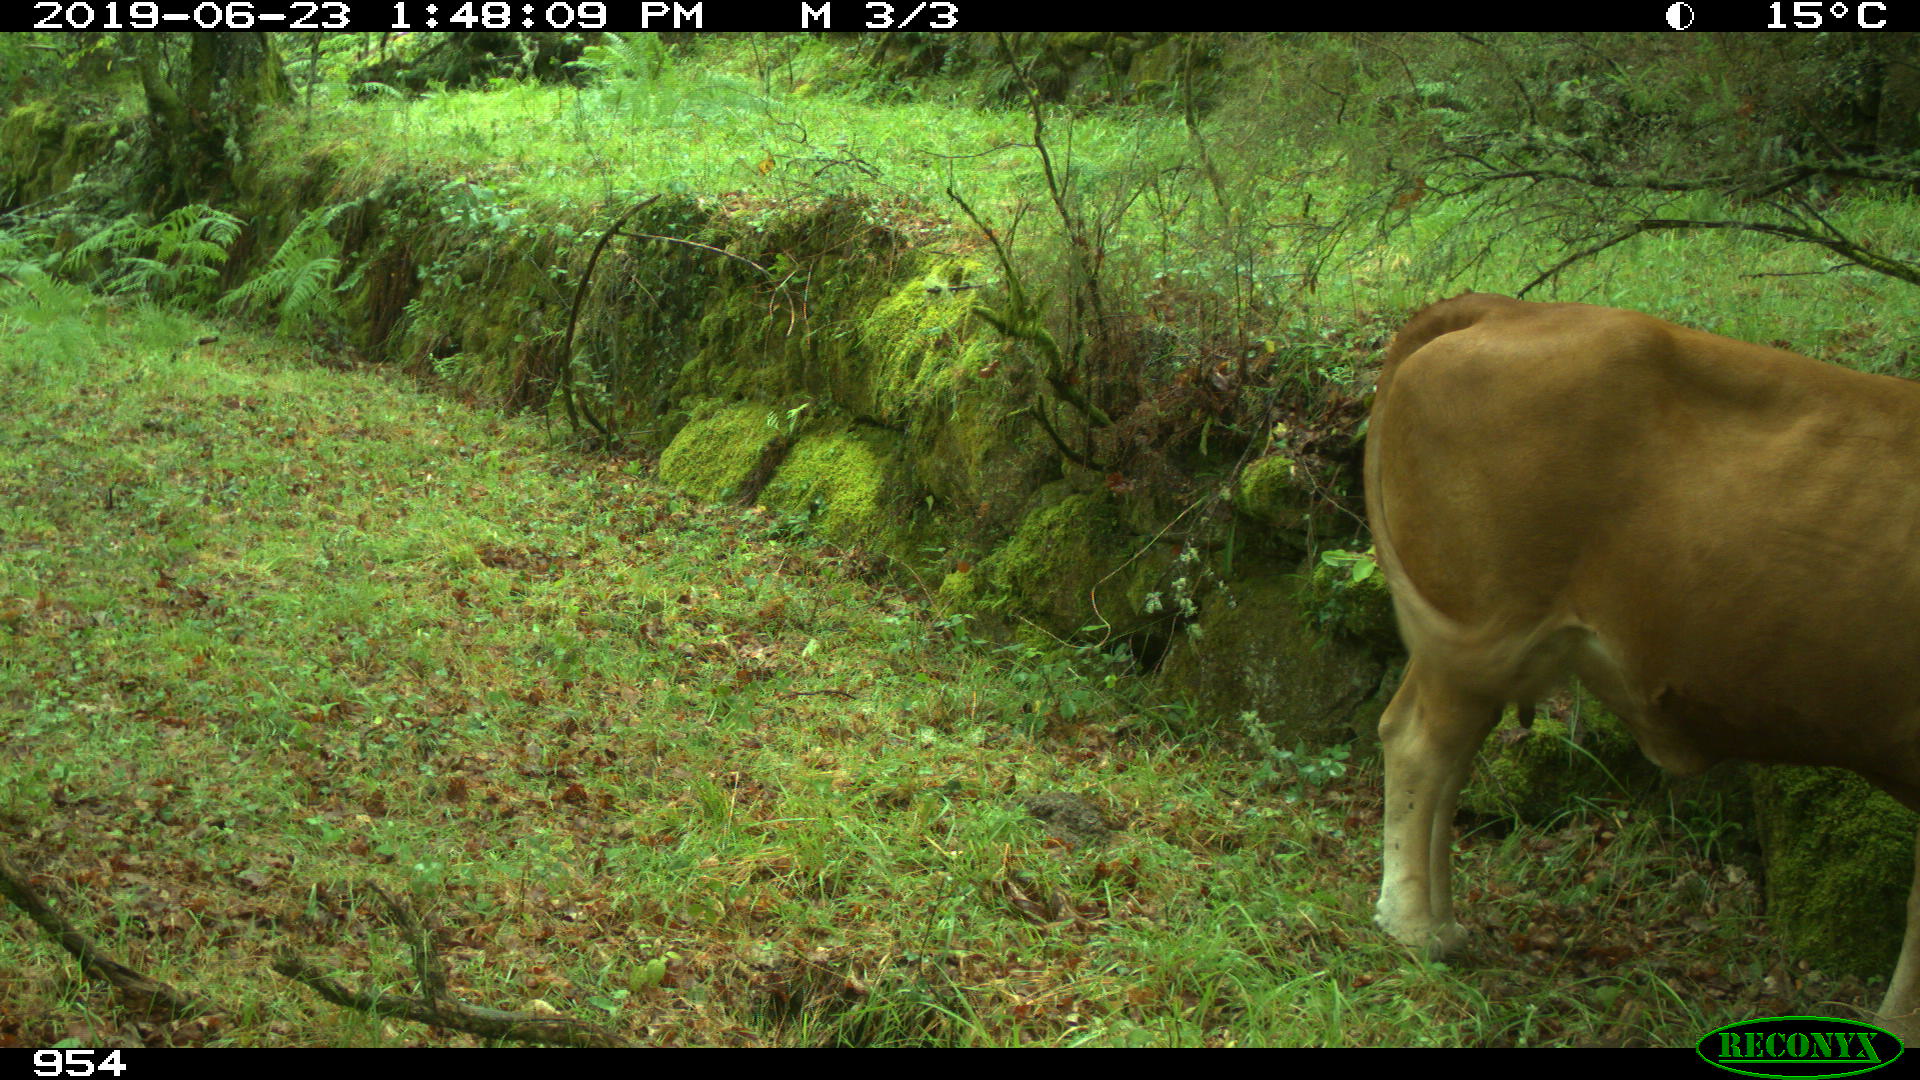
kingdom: Animalia
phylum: Chordata
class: Mammalia
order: Artiodactyla
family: Bovidae
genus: Bos
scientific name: Bos taurus
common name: Domesticated cattle
